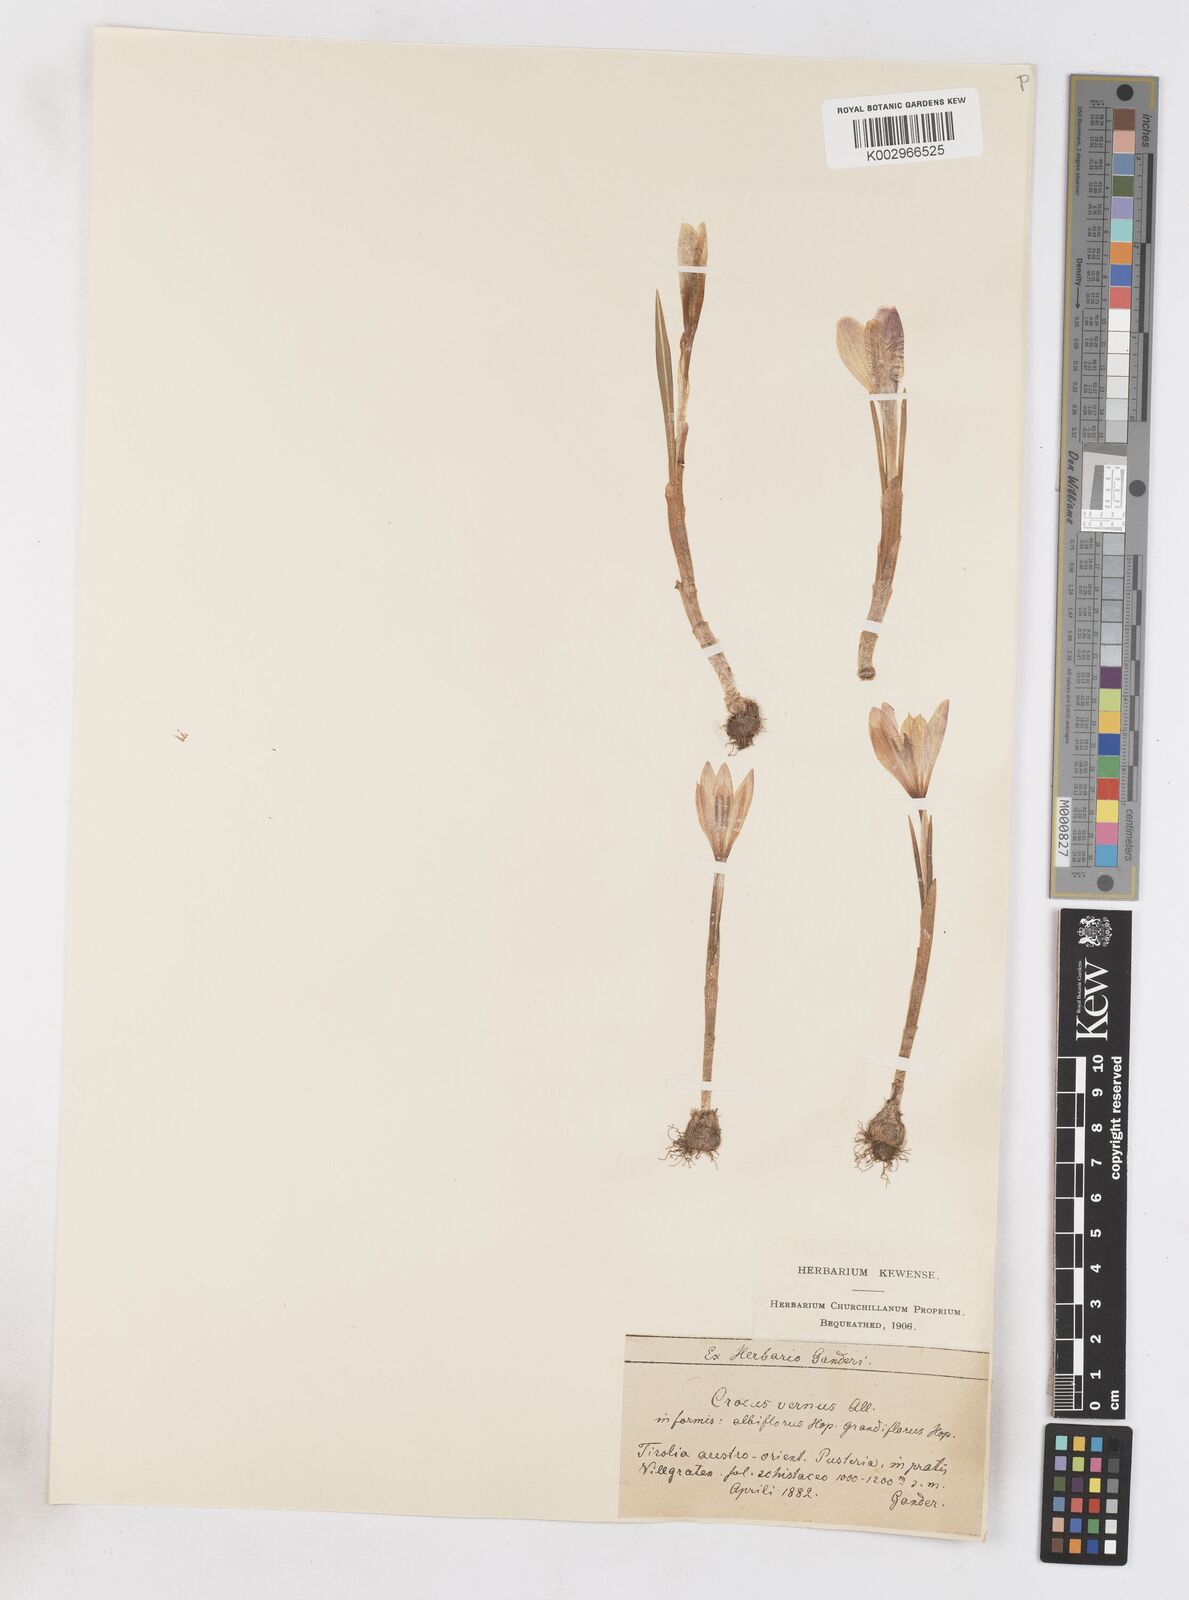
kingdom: Plantae
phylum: Tracheophyta
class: Liliopsida
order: Asparagales
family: Iridaceae
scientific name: Iridaceae
